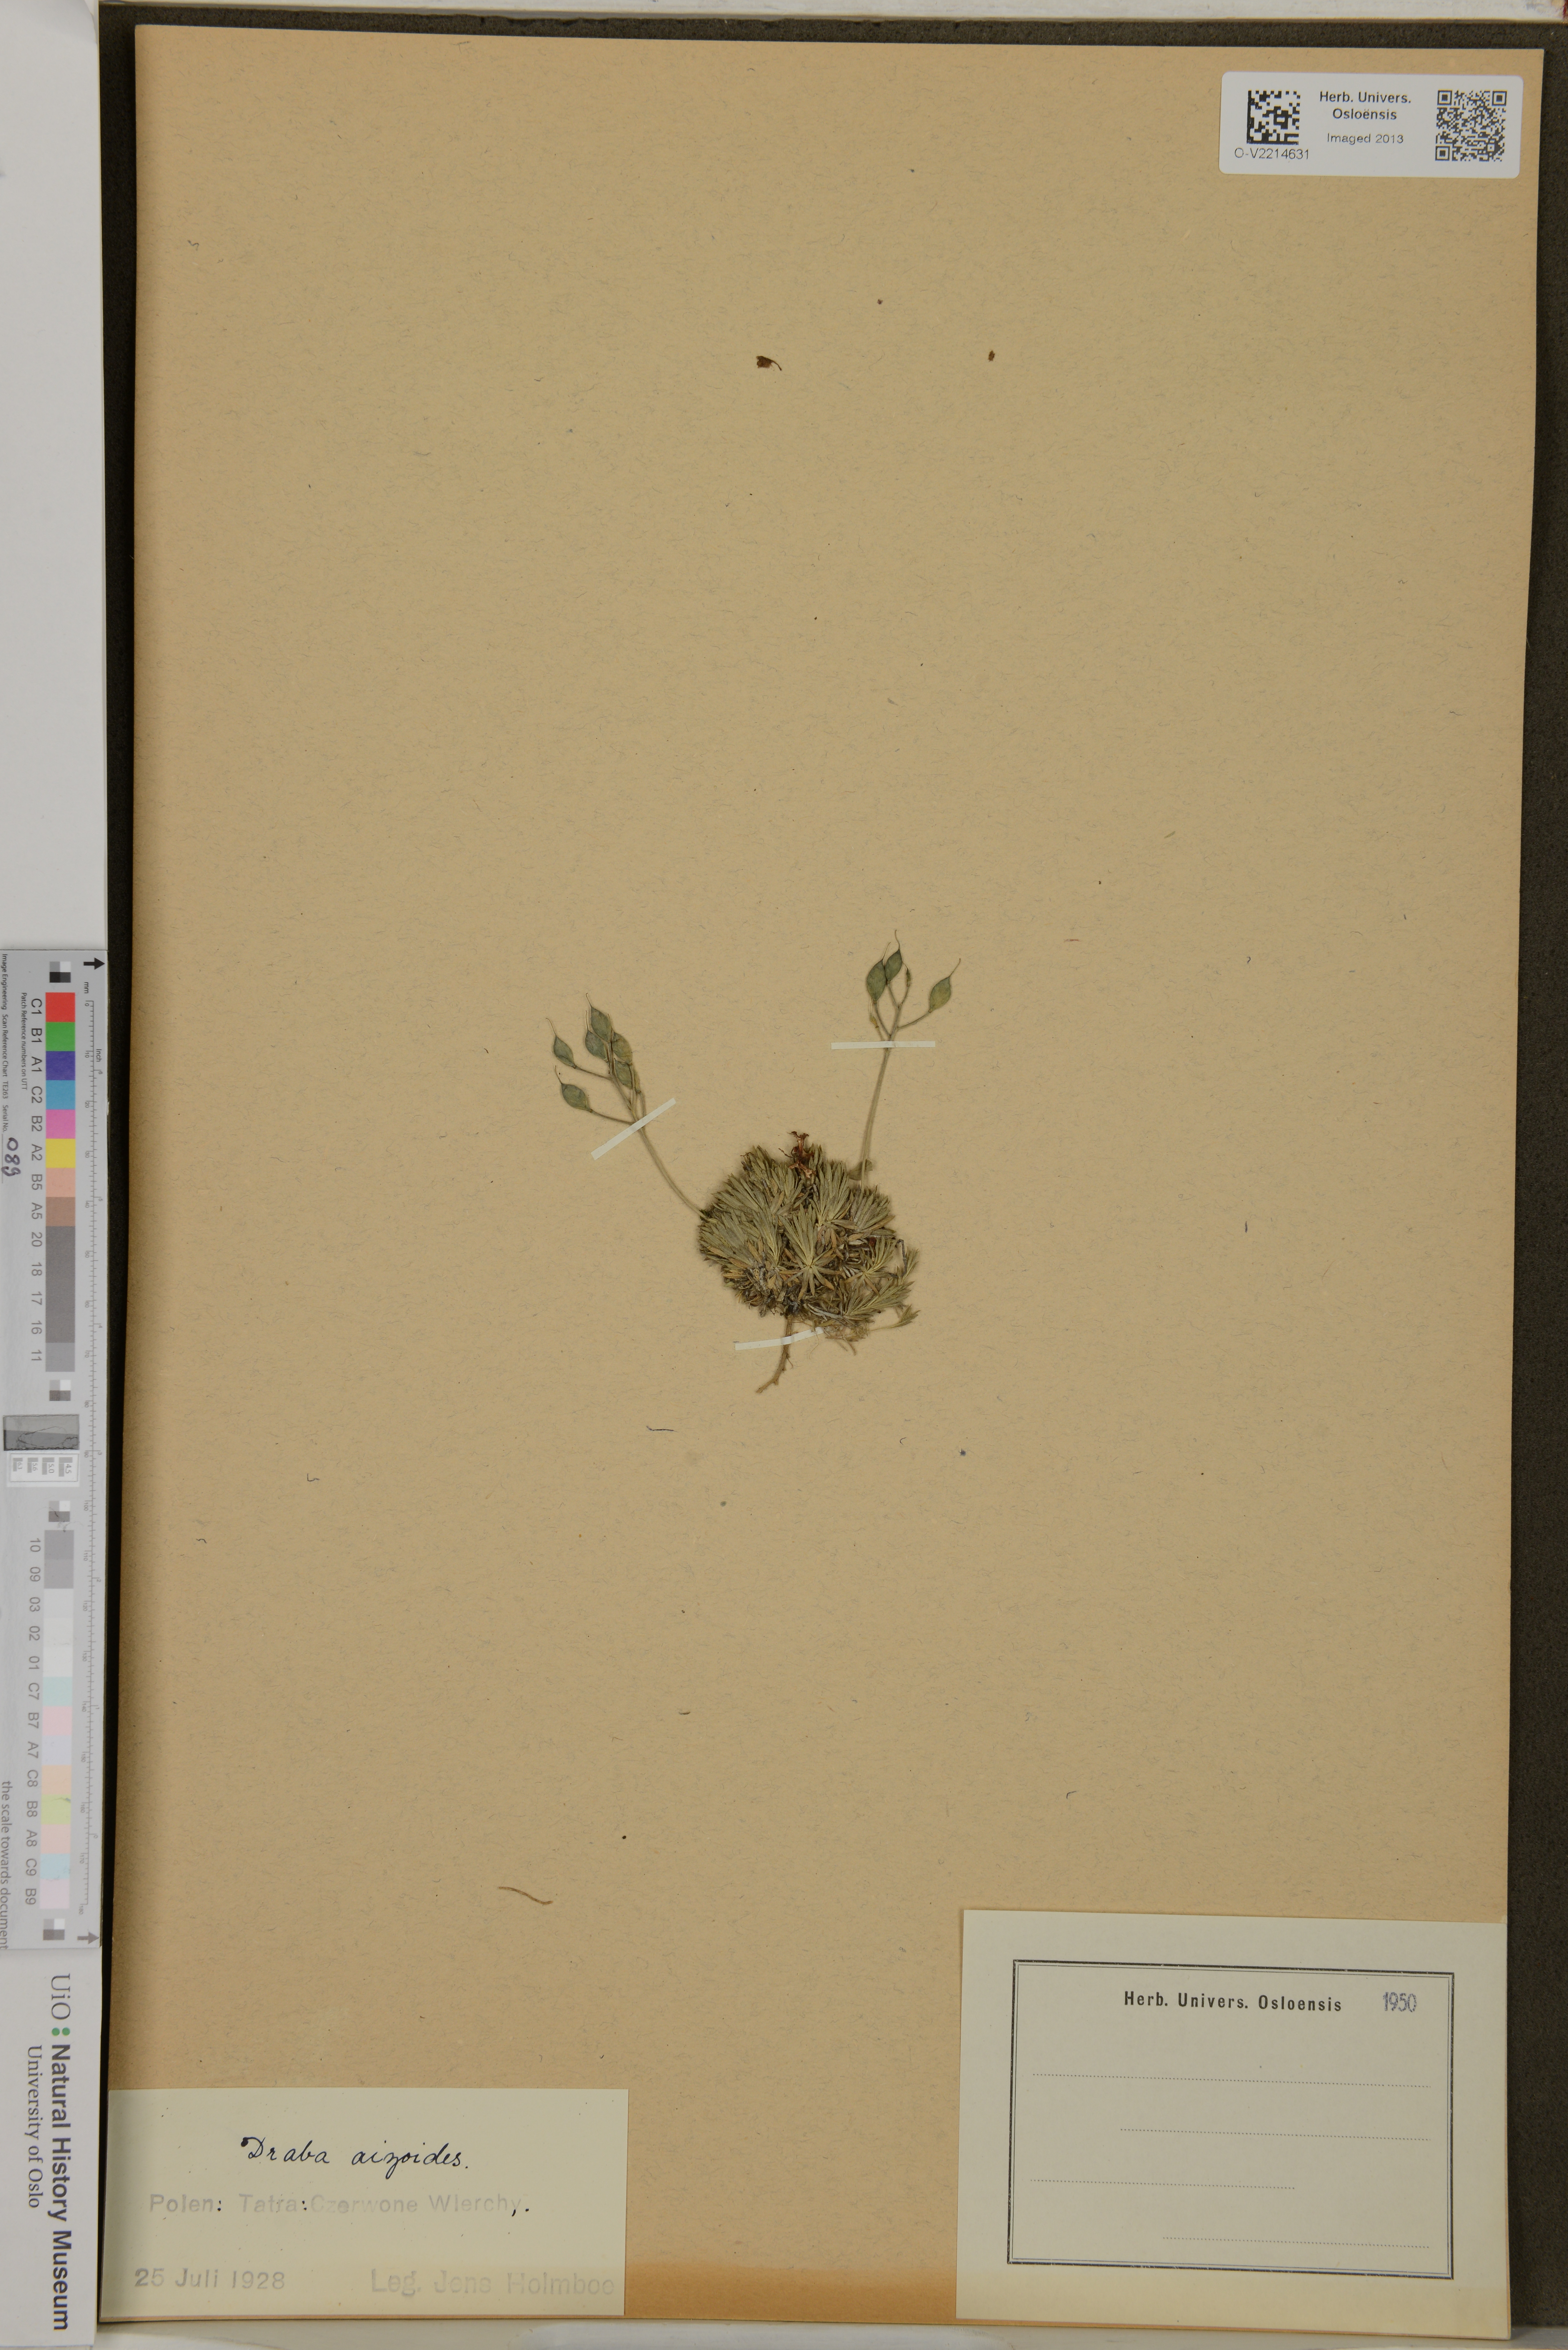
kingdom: Plantae
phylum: Tracheophyta
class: Magnoliopsida
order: Brassicales
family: Brassicaceae
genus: Draba
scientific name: Draba aizoides
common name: Yellow whitlowgrass
